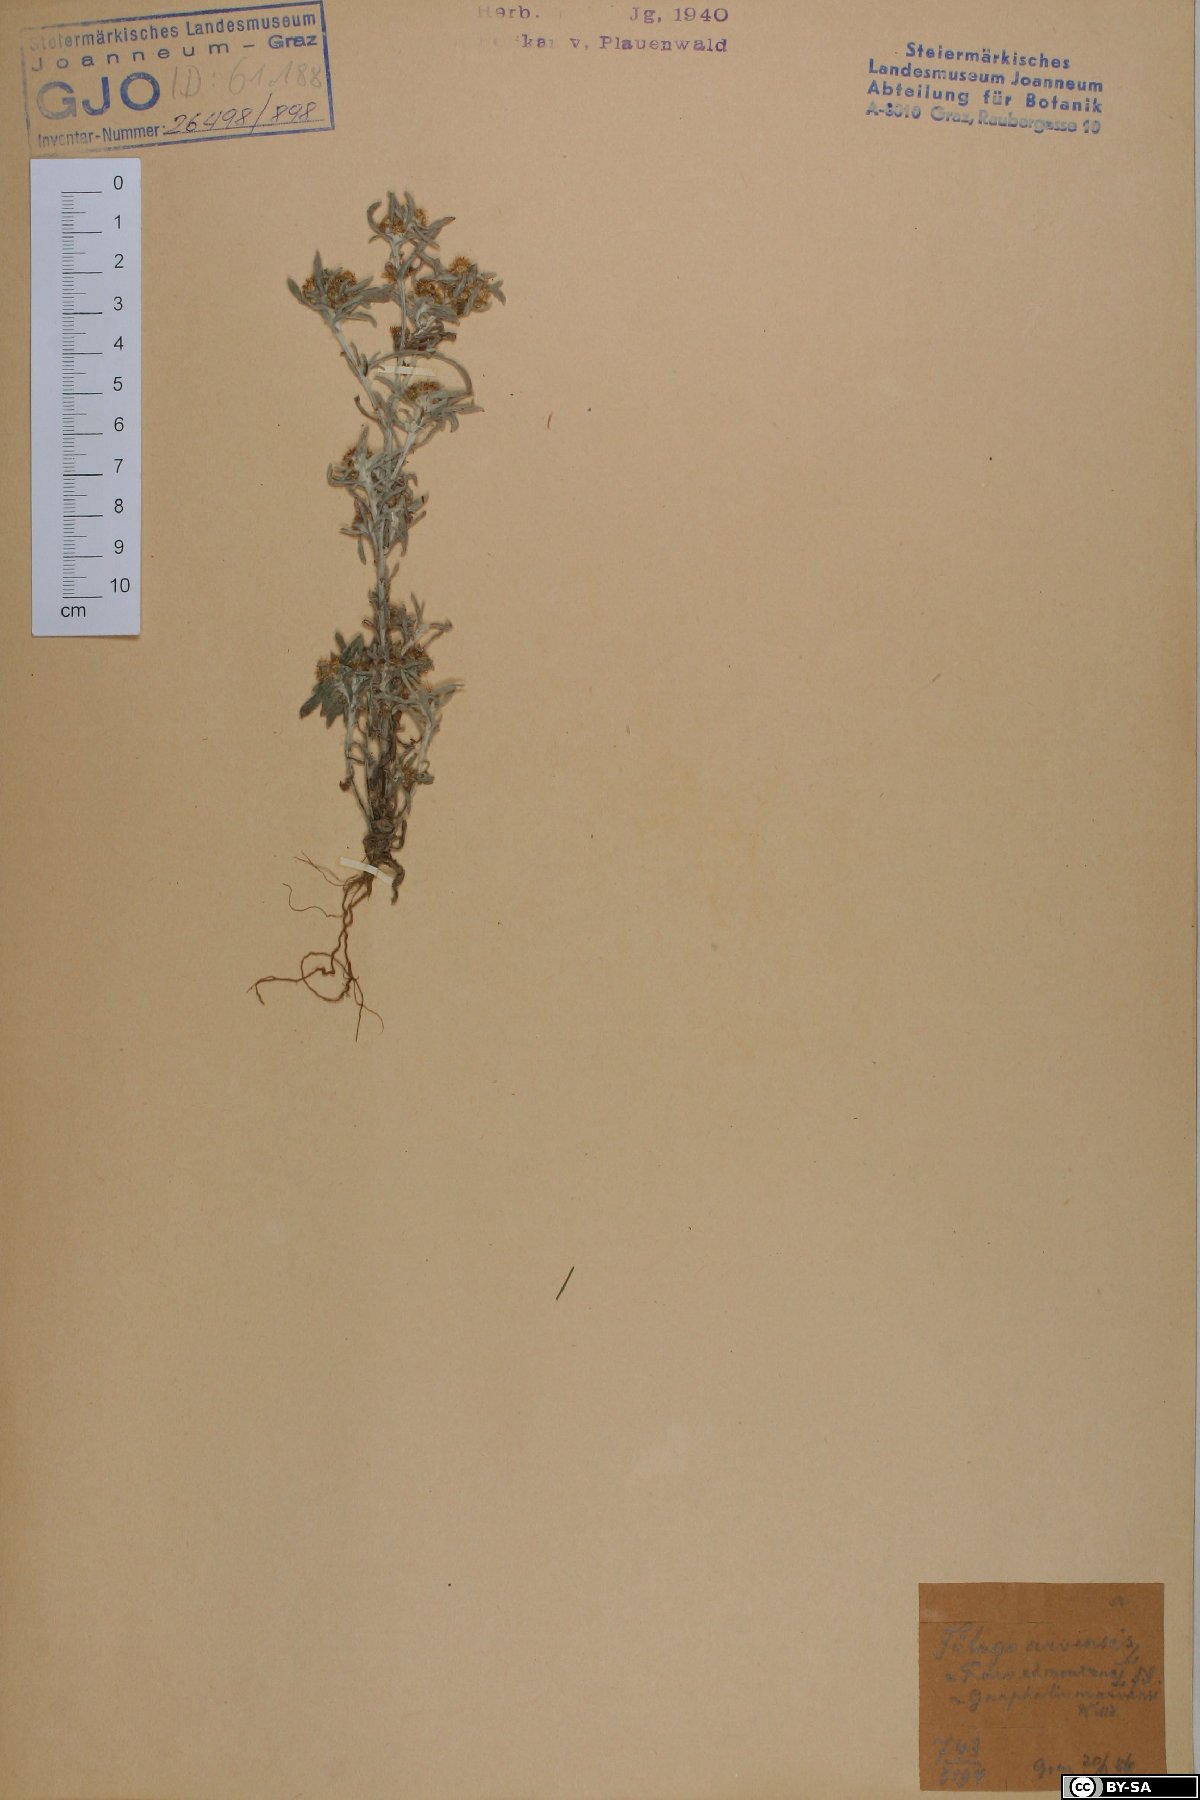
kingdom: Plantae
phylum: Tracheophyta
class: Magnoliopsida
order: Asterales
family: Asteraceae
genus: Gnaphalium
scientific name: Gnaphalium uliginosum
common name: Marsh cudweed
